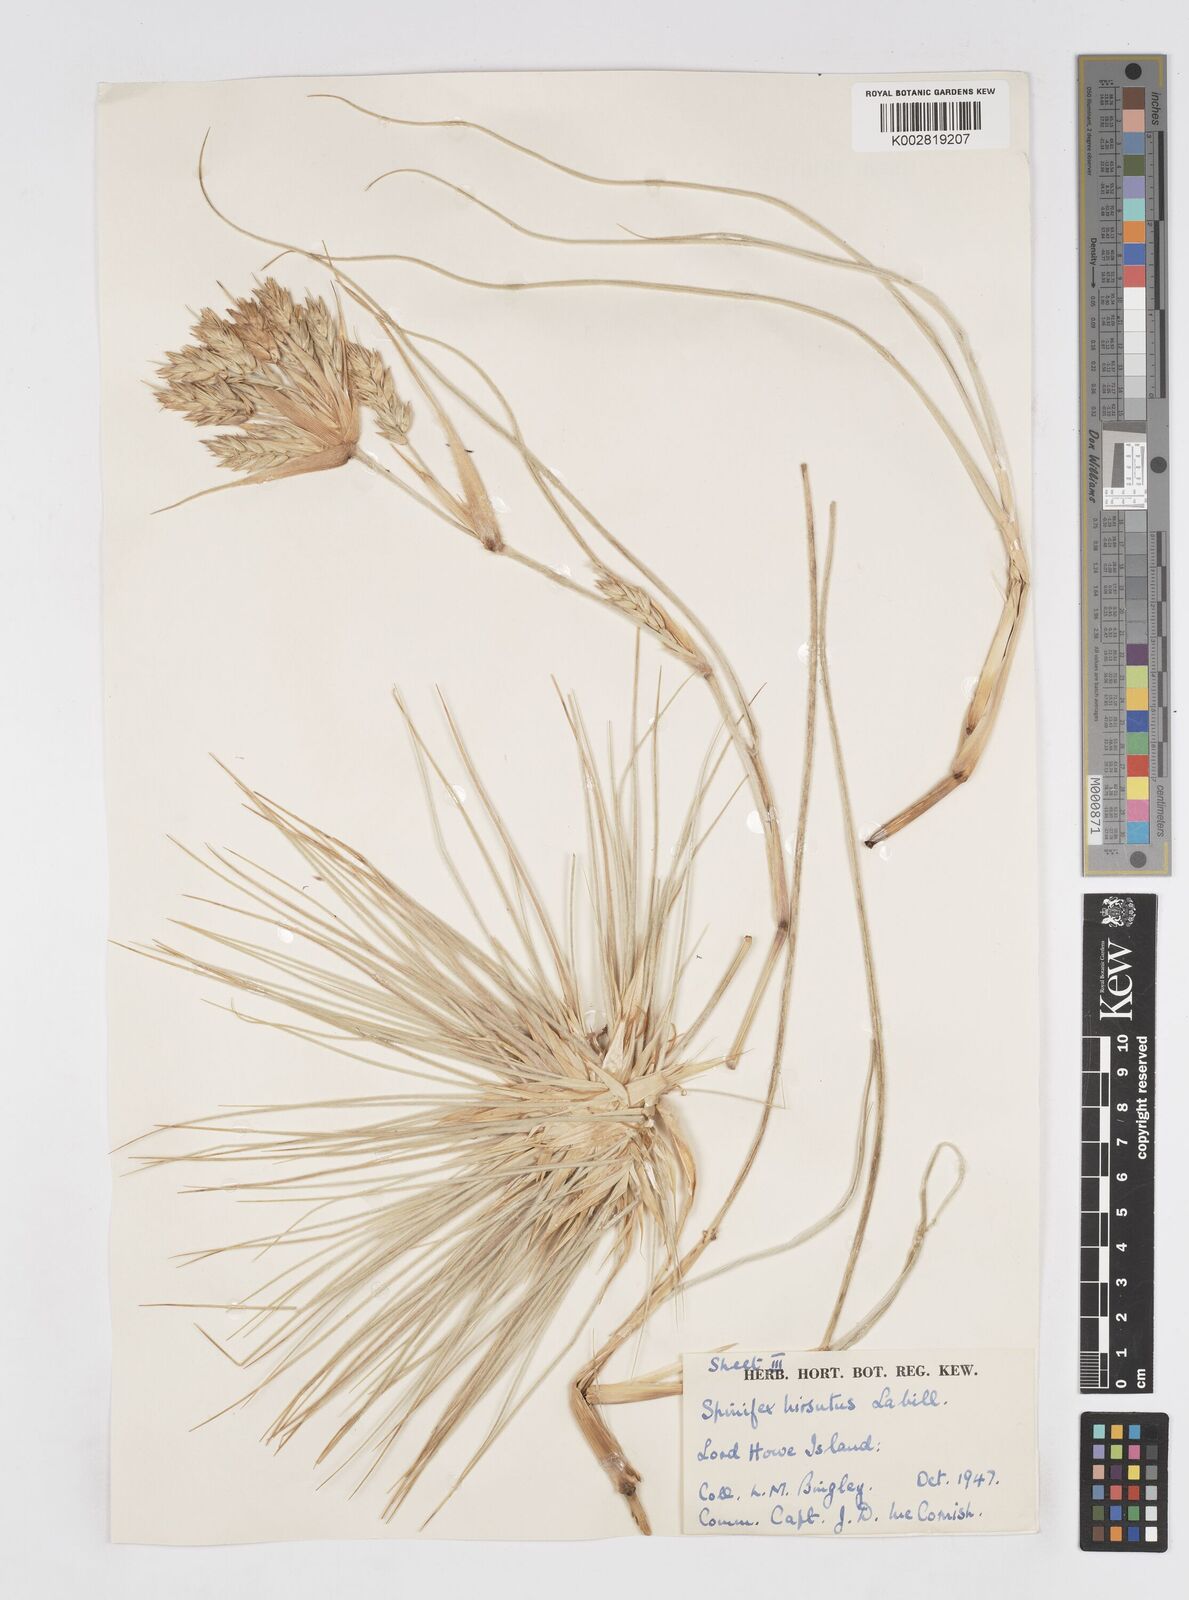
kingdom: Plantae
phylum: Tracheophyta
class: Liliopsida
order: Poales
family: Poaceae
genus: Spinifex
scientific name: Spinifex hirsutus
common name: Hairy spinifex
